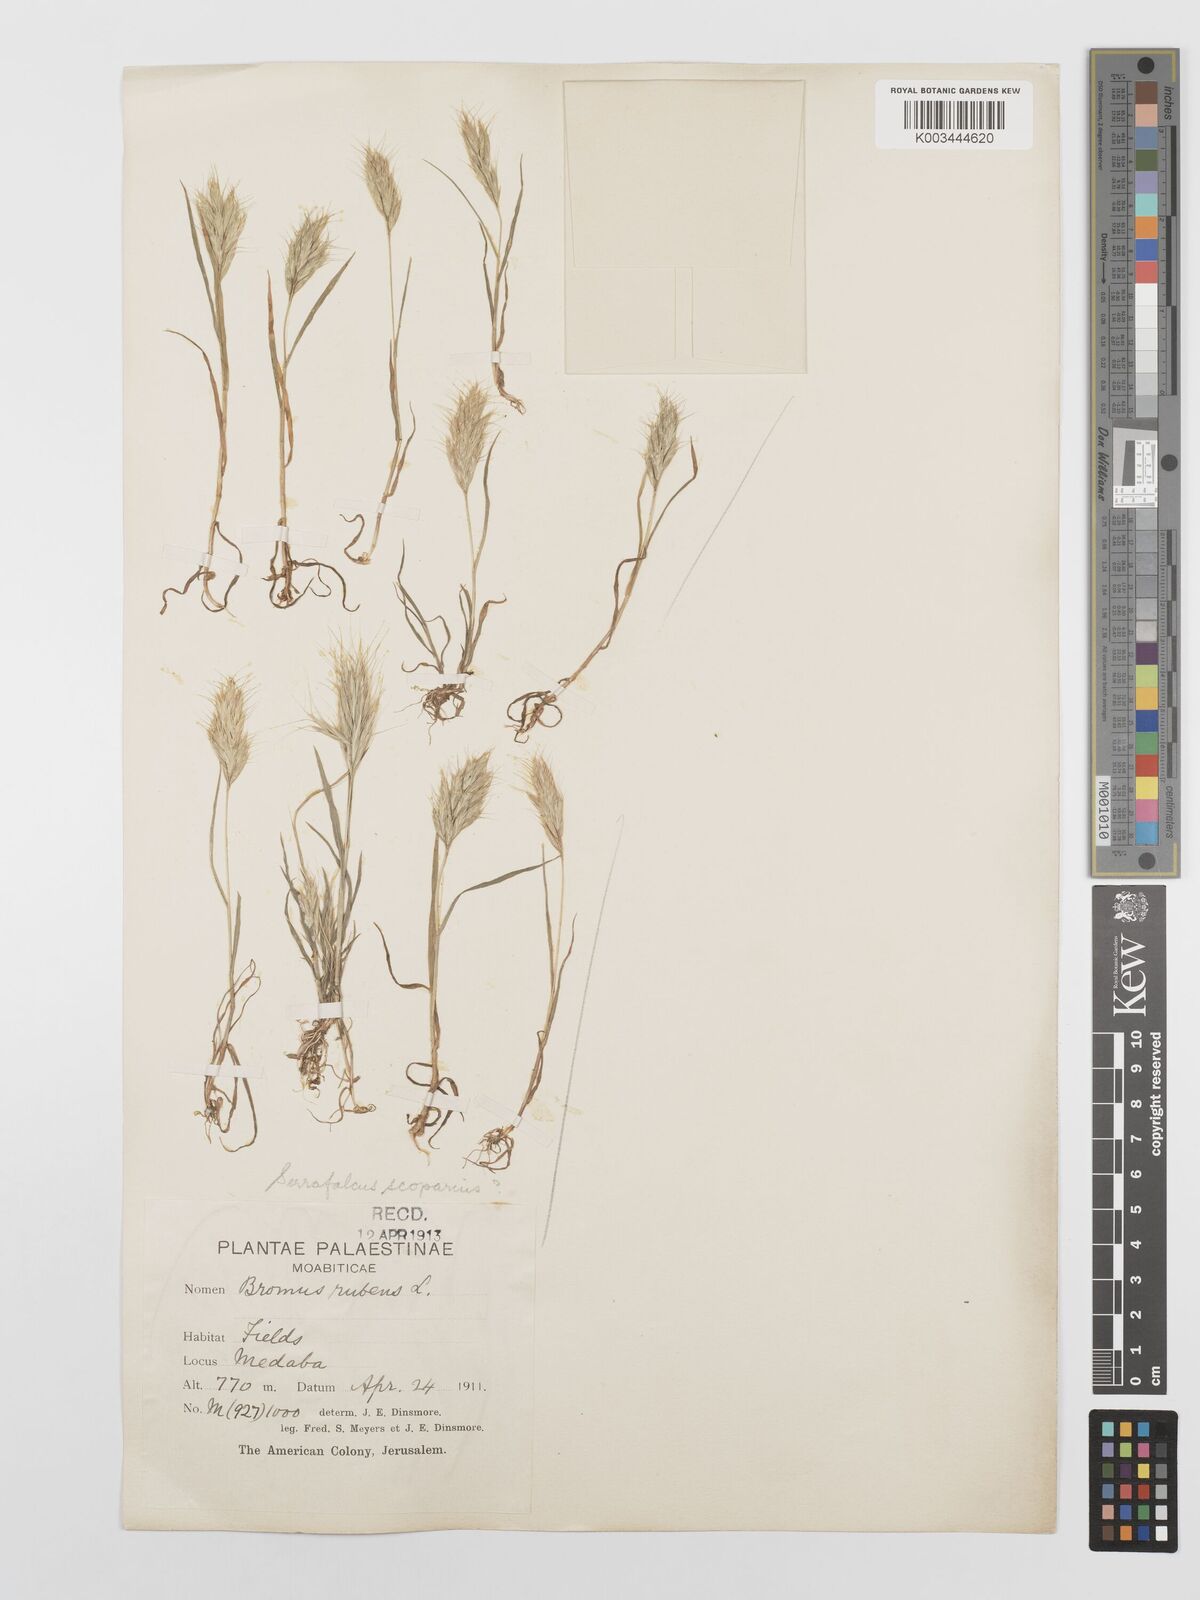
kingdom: Plantae
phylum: Tracheophyta
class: Liliopsida
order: Poales
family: Poaceae
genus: Bromus
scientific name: Bromus scoparius
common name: Broom brome
